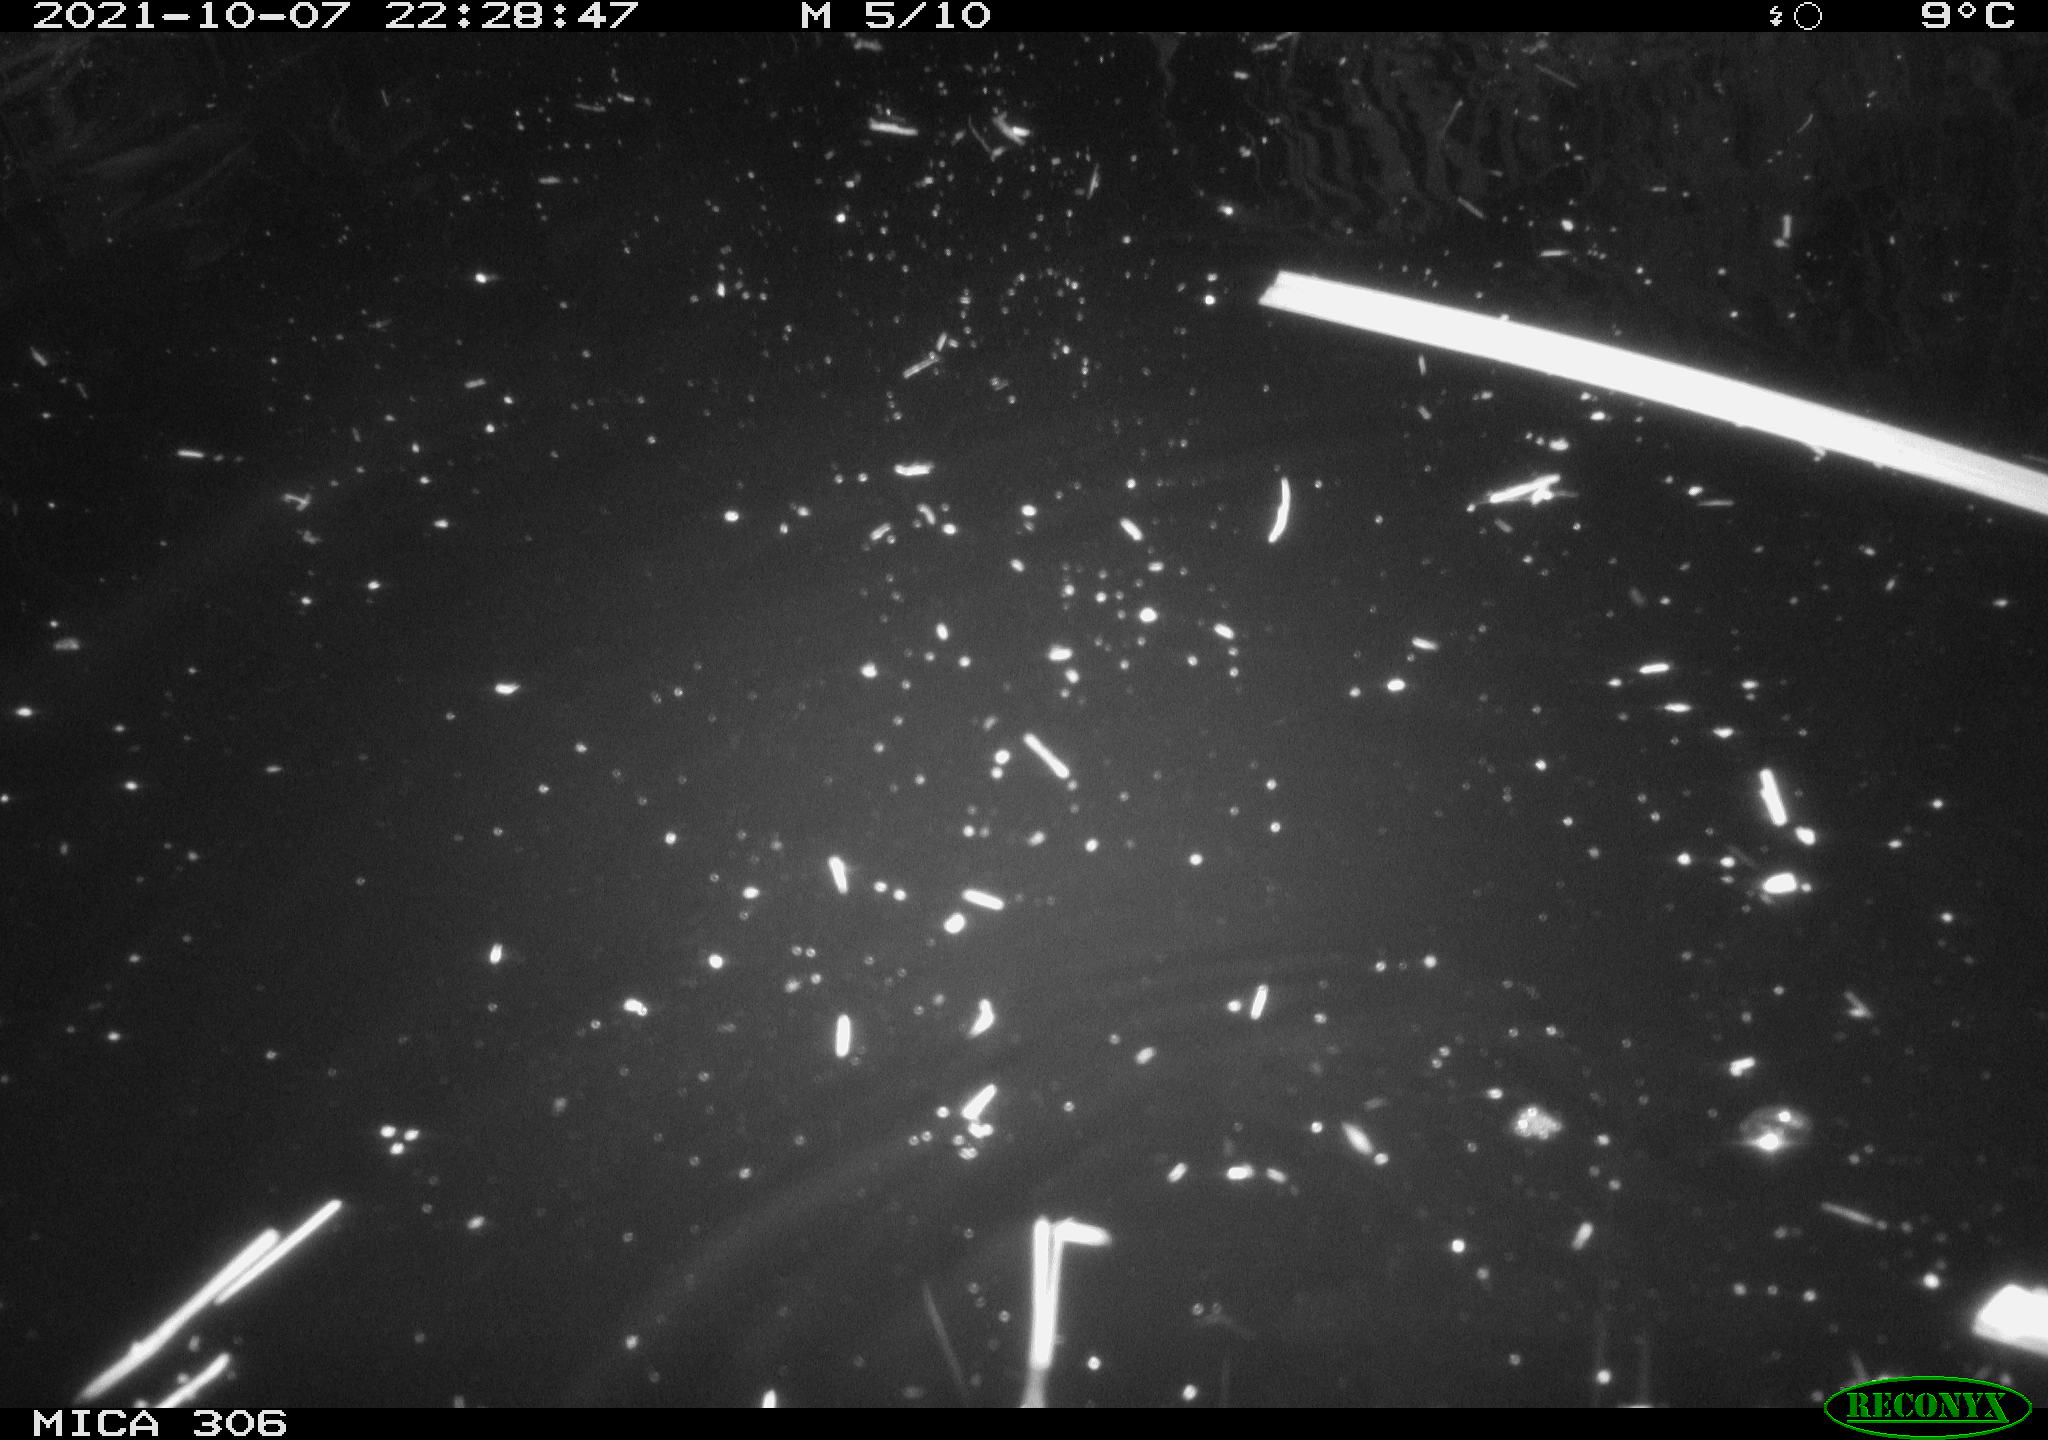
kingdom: Animalia
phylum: Chordata
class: Mammalia
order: Rodentia
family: Cricetidae
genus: Ondatra
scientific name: Ondatra zibethicus
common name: Muskrat
